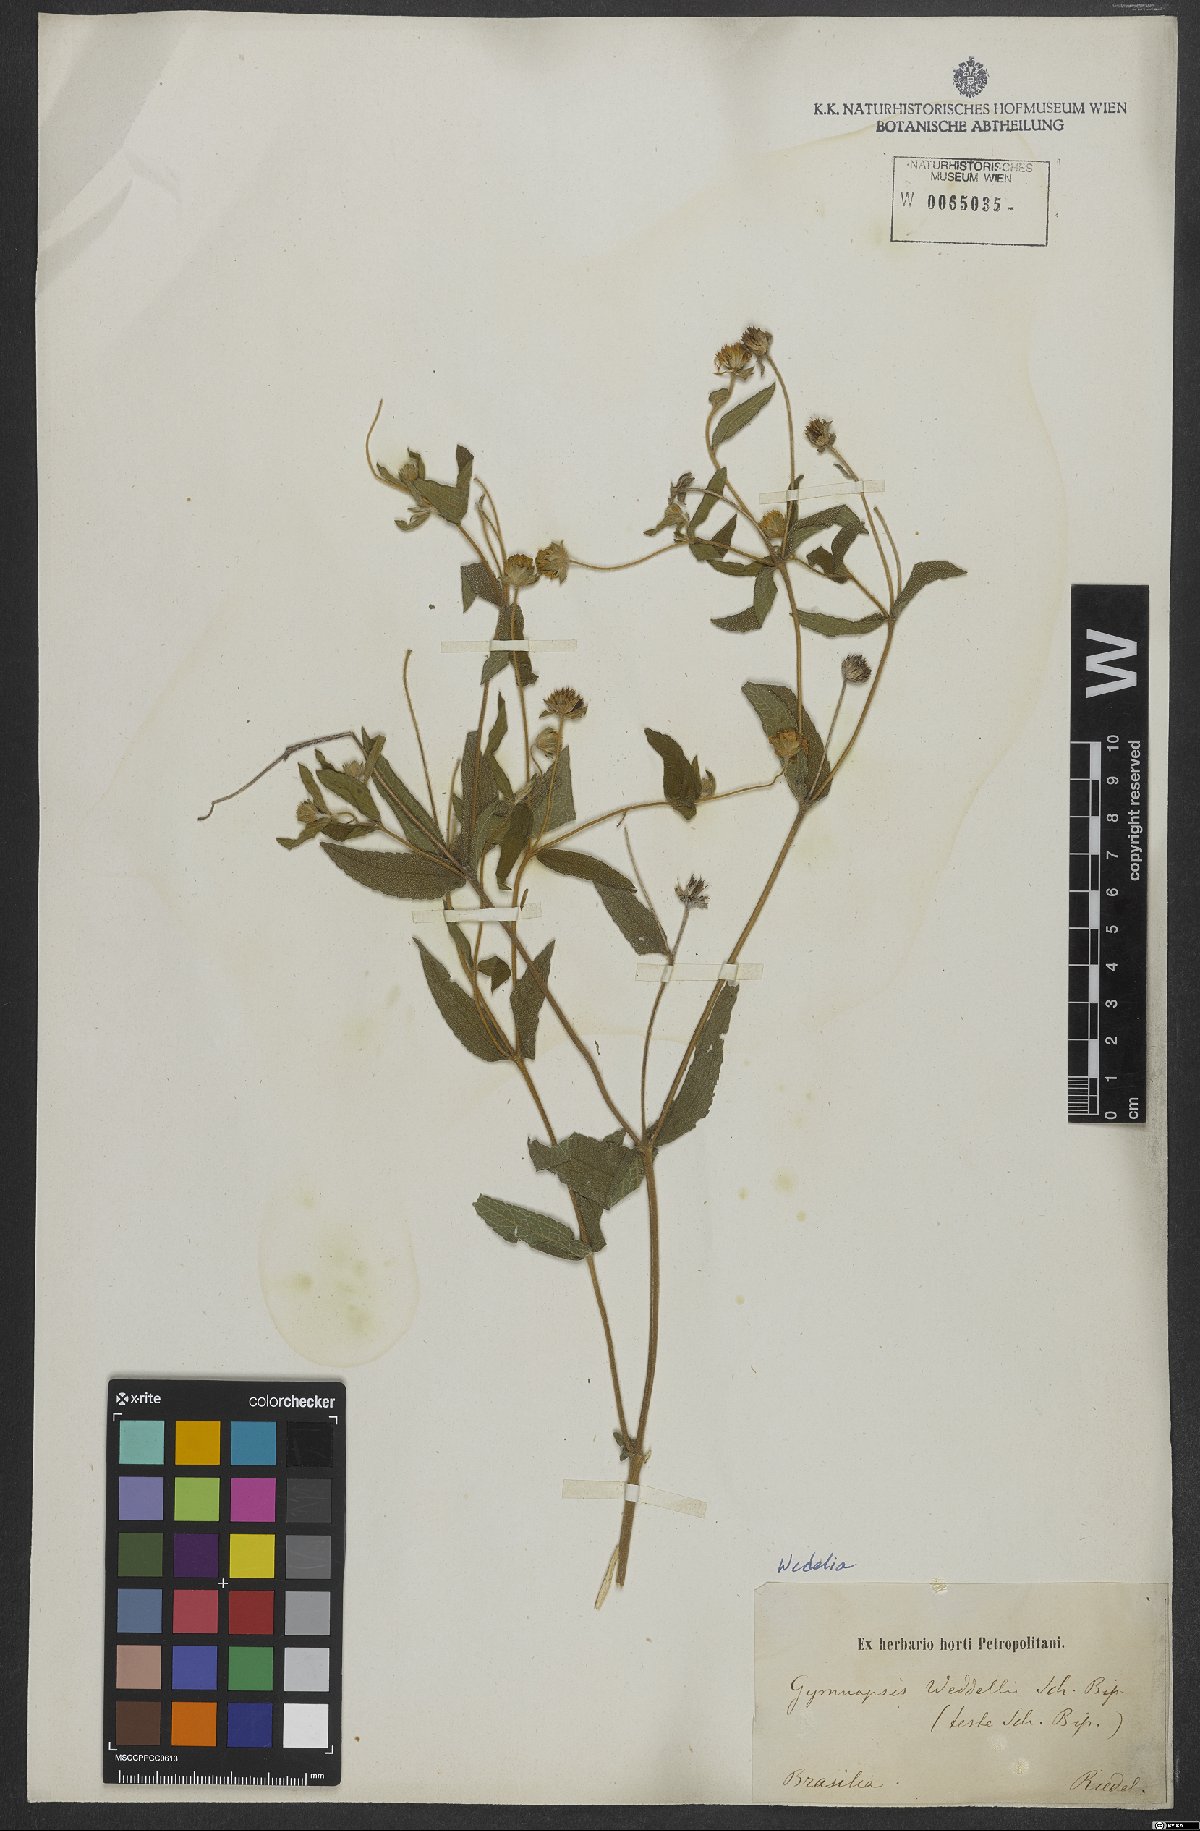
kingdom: Plantae
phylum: Tracheophyta
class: Magnoliopsida
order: Asterales
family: Asteraceae
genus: Wedelia
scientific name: Wedelia macrodonta
